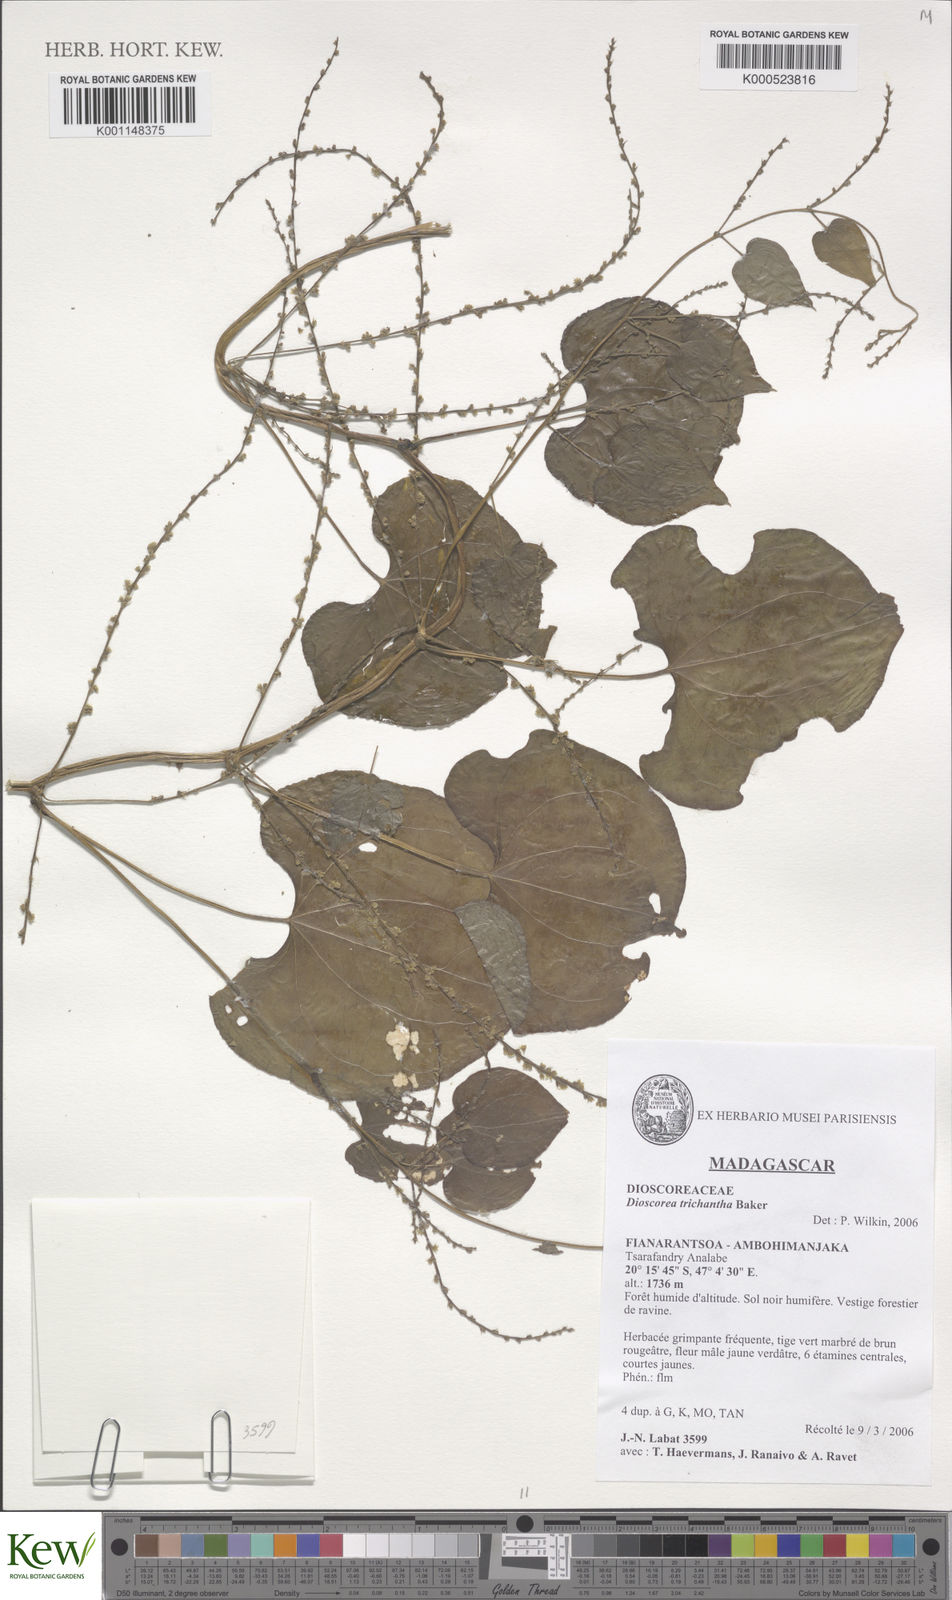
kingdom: Plantae
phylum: Tracheophyta
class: Liliopsida
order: Dioscoreales
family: Dioscoreaceae
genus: Dioscorea
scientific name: Dioscorea trichantha
